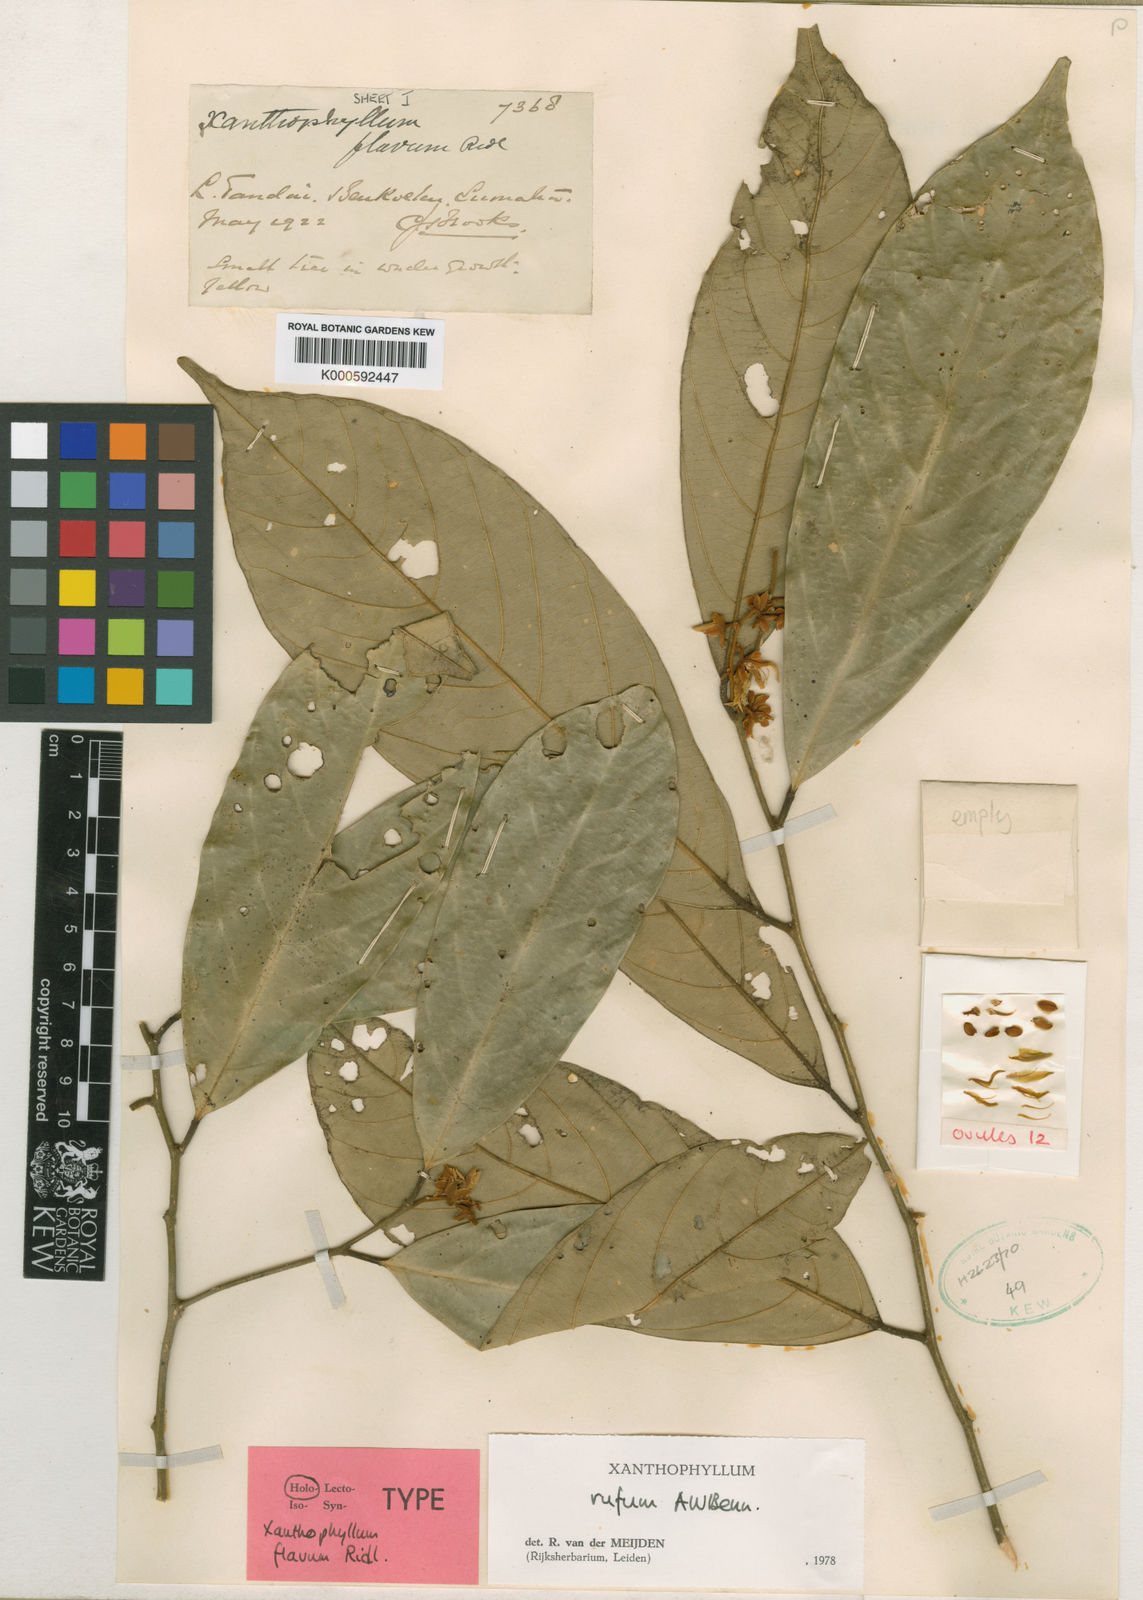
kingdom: Plantae
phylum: Tracheophyta
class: Magnoliopsida
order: Fabales
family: Polygalaceae
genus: Xanthophyllum
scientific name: Xanthophyllum rufum
